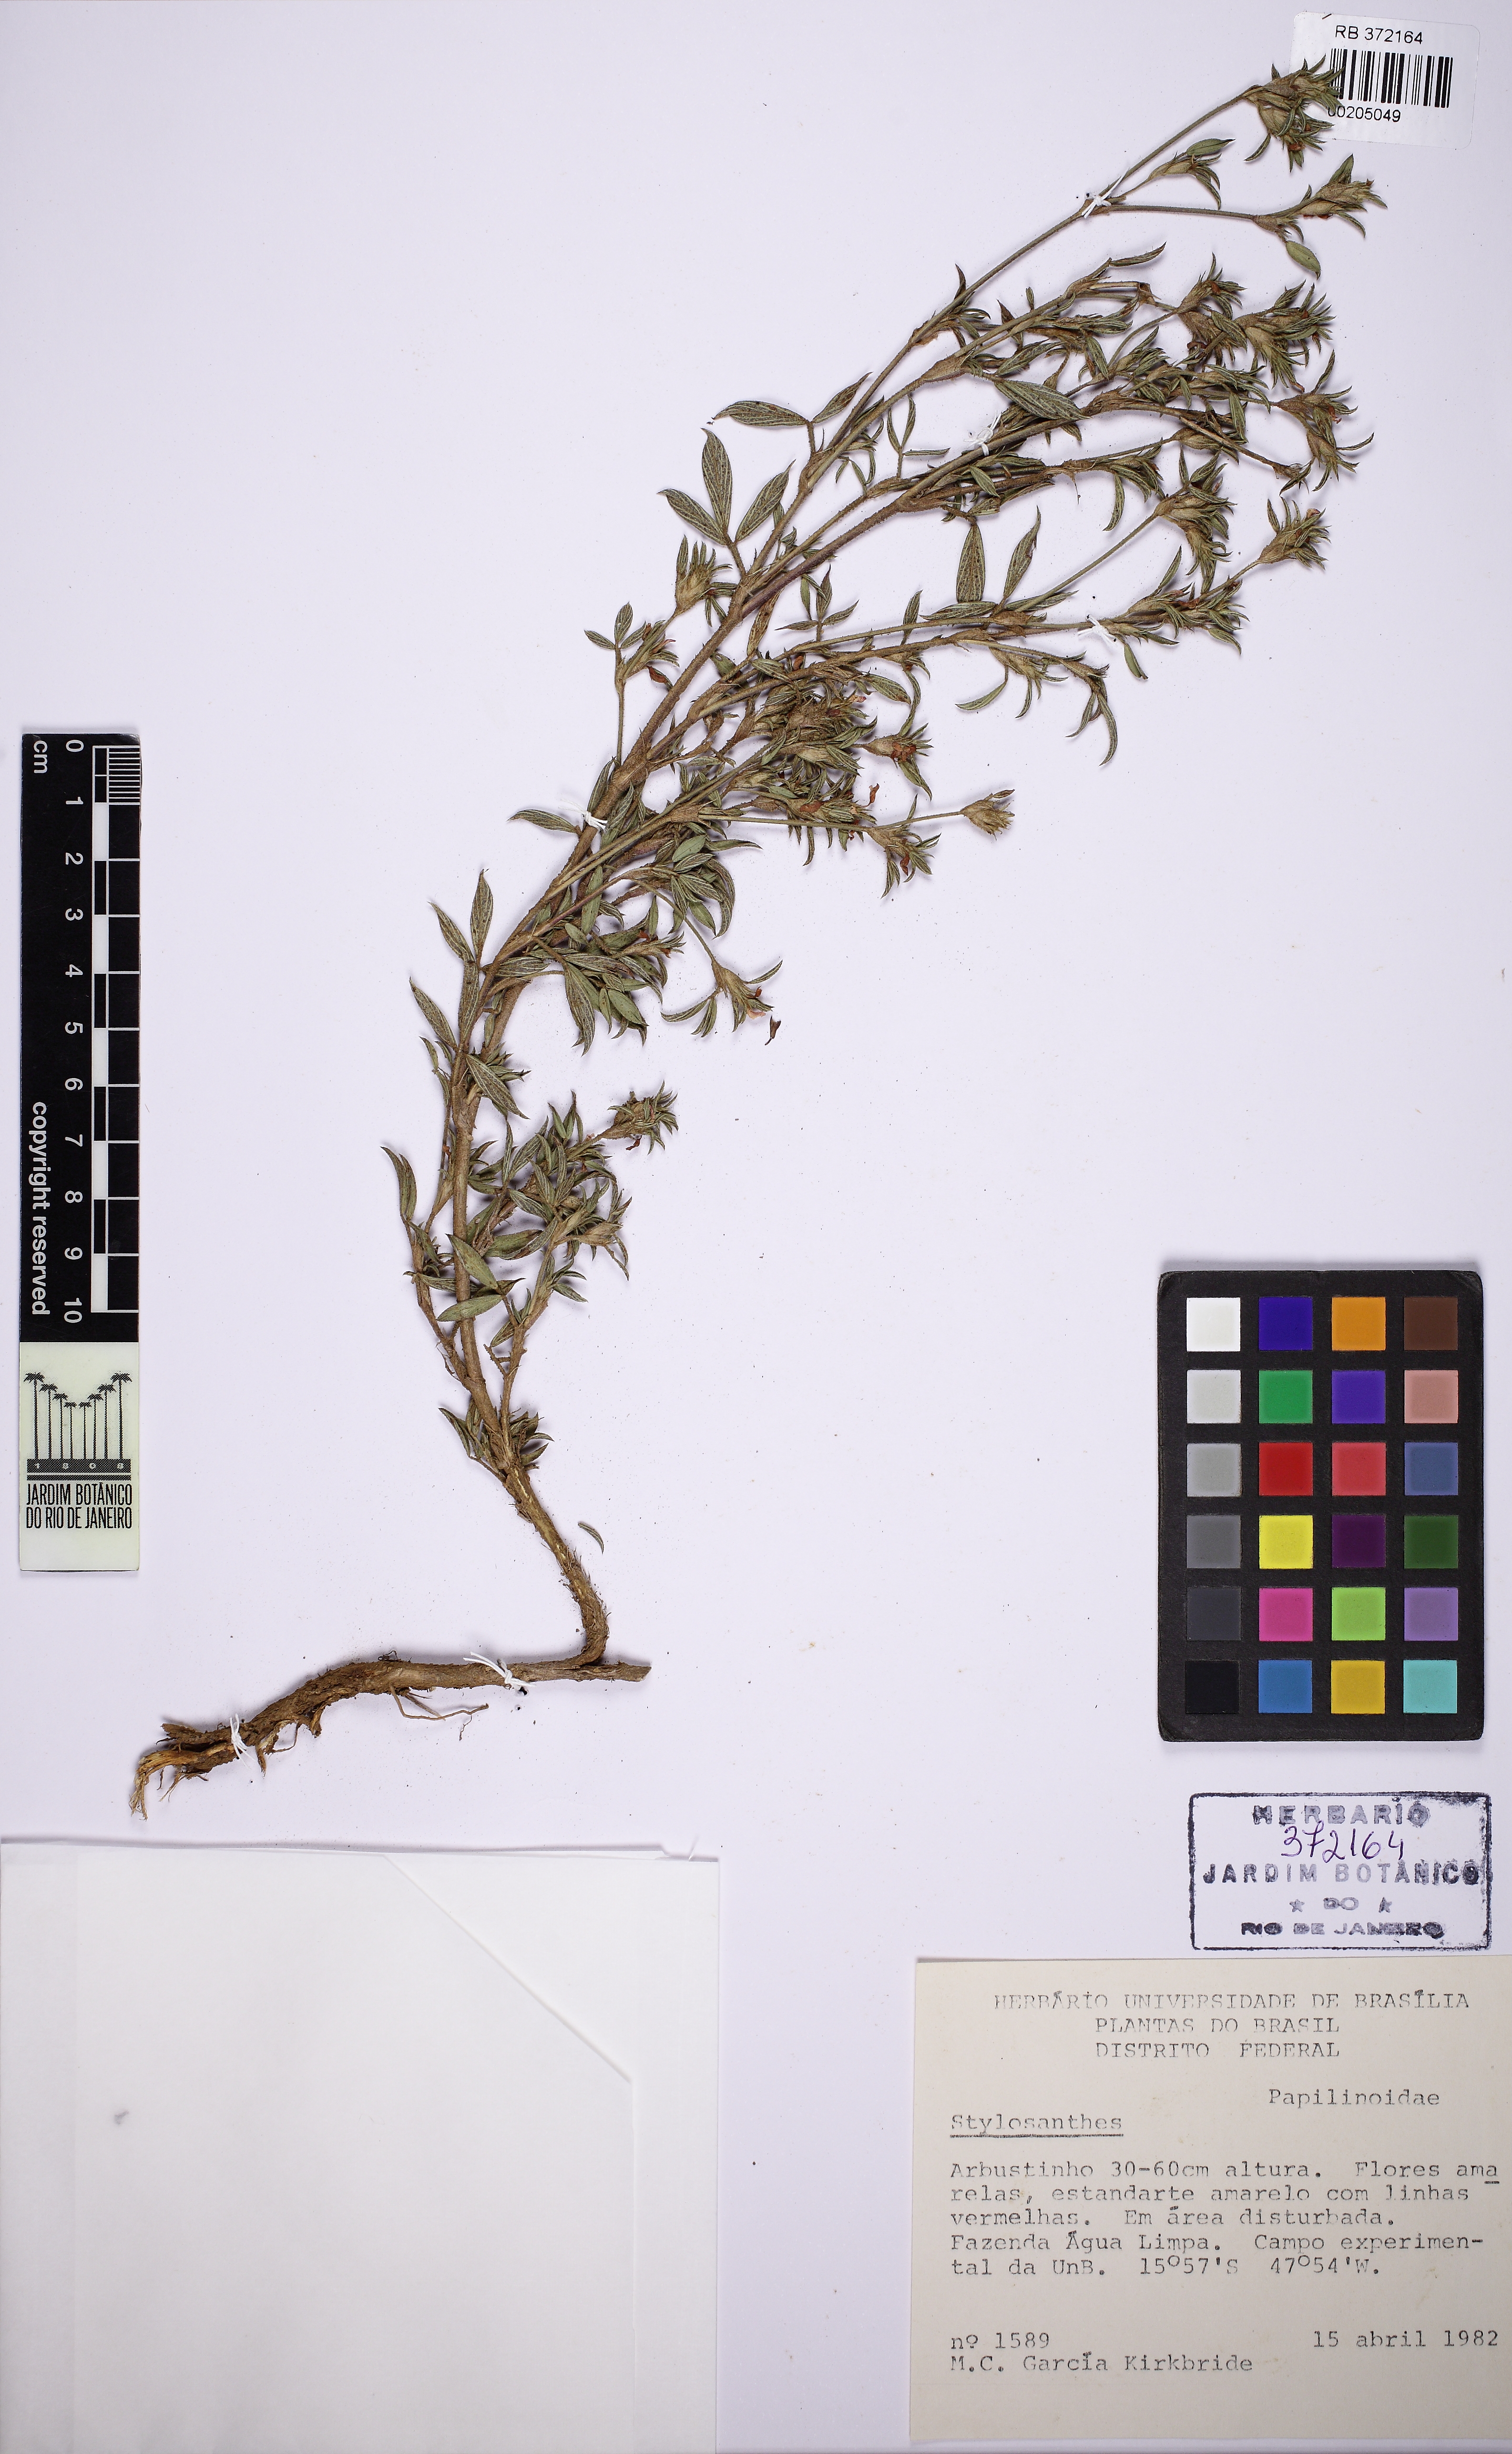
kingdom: Plantae
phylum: Tracheophyta
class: Magnoliopsida
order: Fabales
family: Fabaceae
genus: Stylosanthes
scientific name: Stylosanthes
